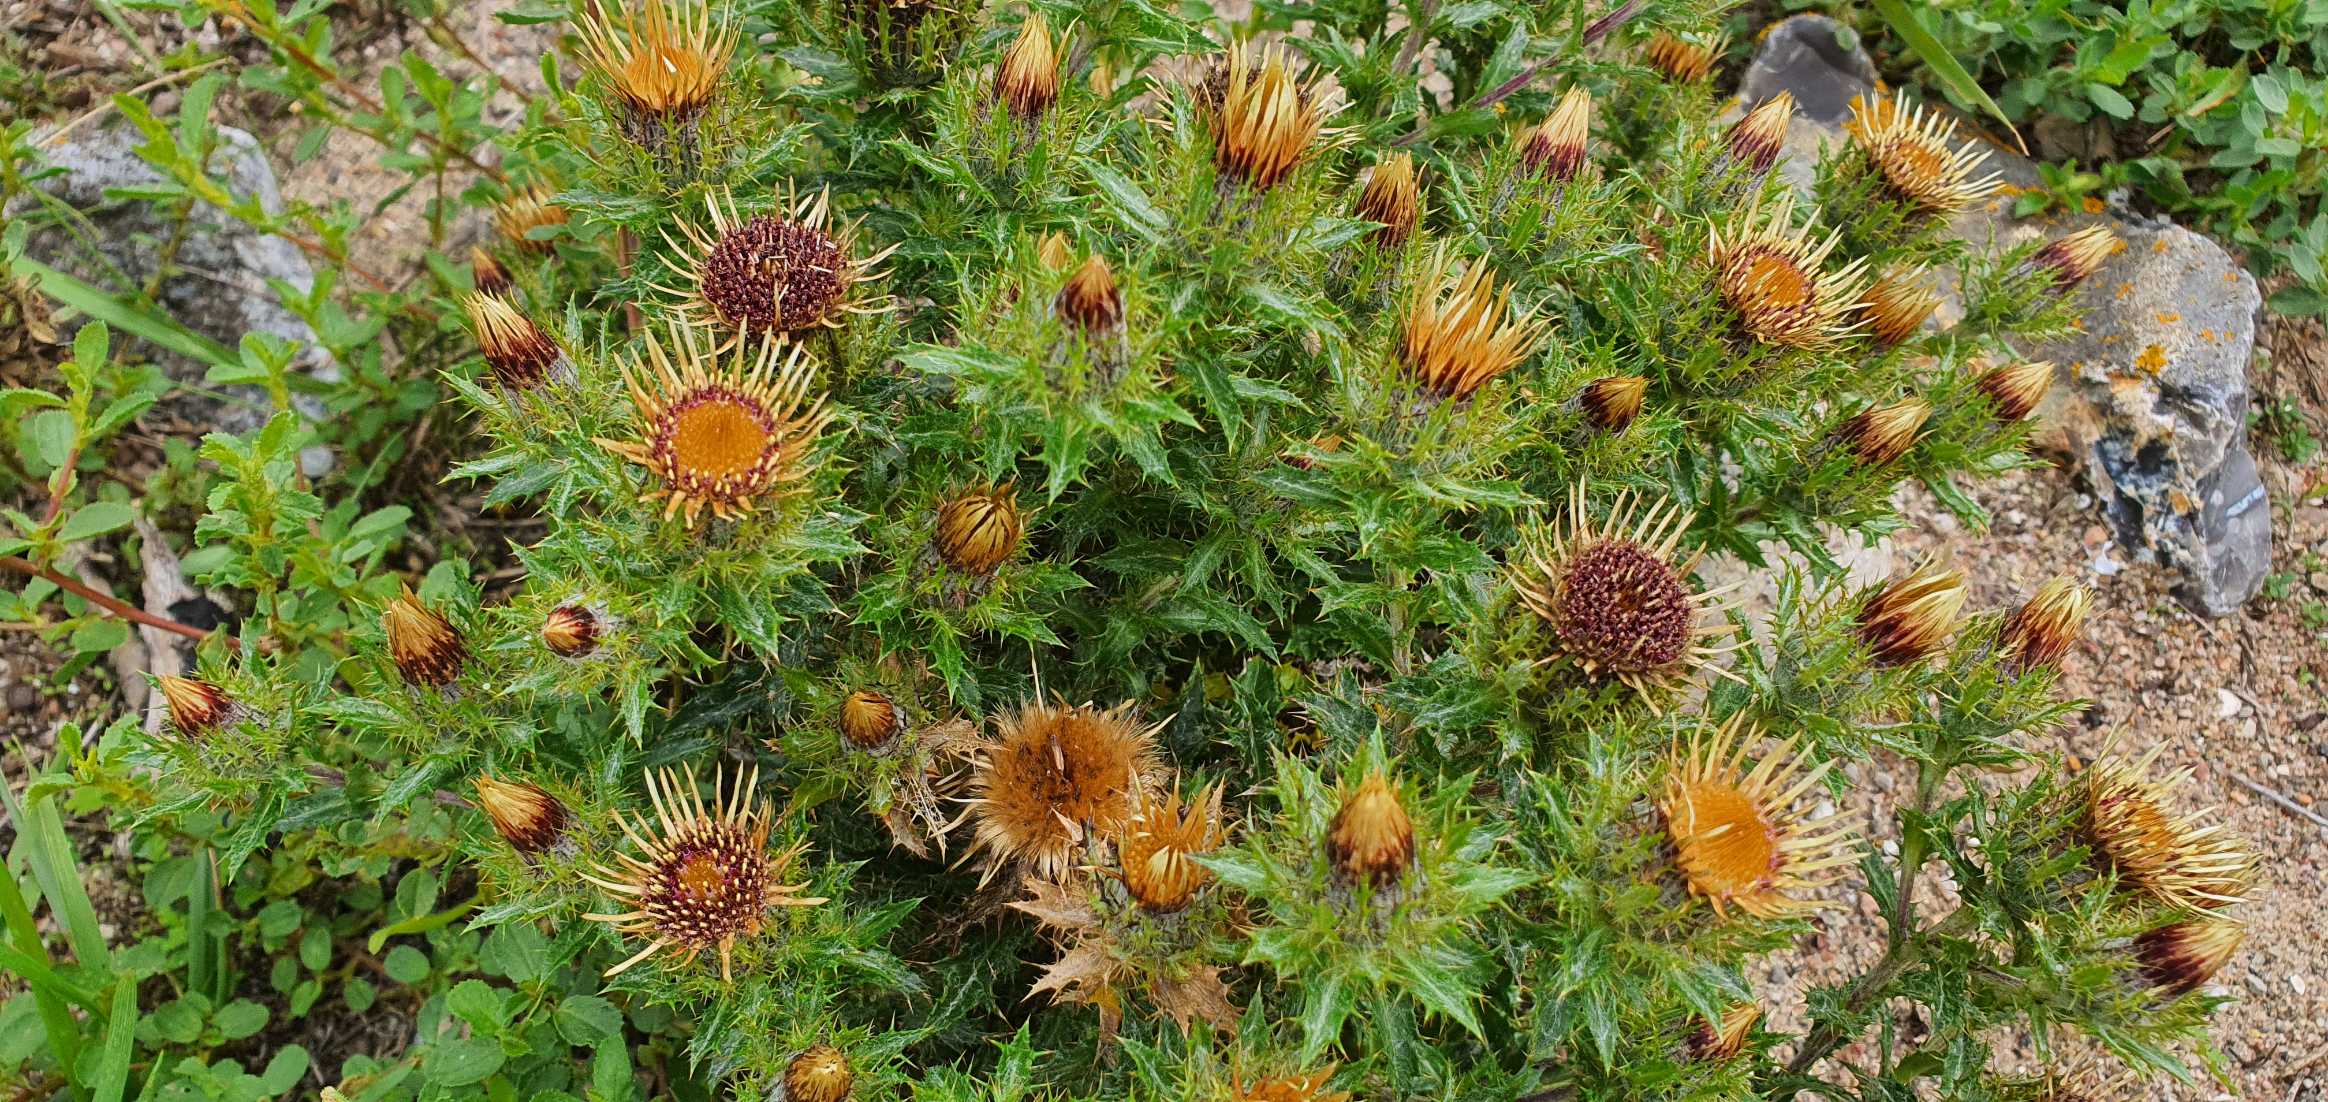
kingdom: Plantae
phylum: Tracheophyta
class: Magnoliopsida
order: Asterales
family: Asteraceae
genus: Carlina
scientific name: Carlina vulgaris
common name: Bakketidsel
